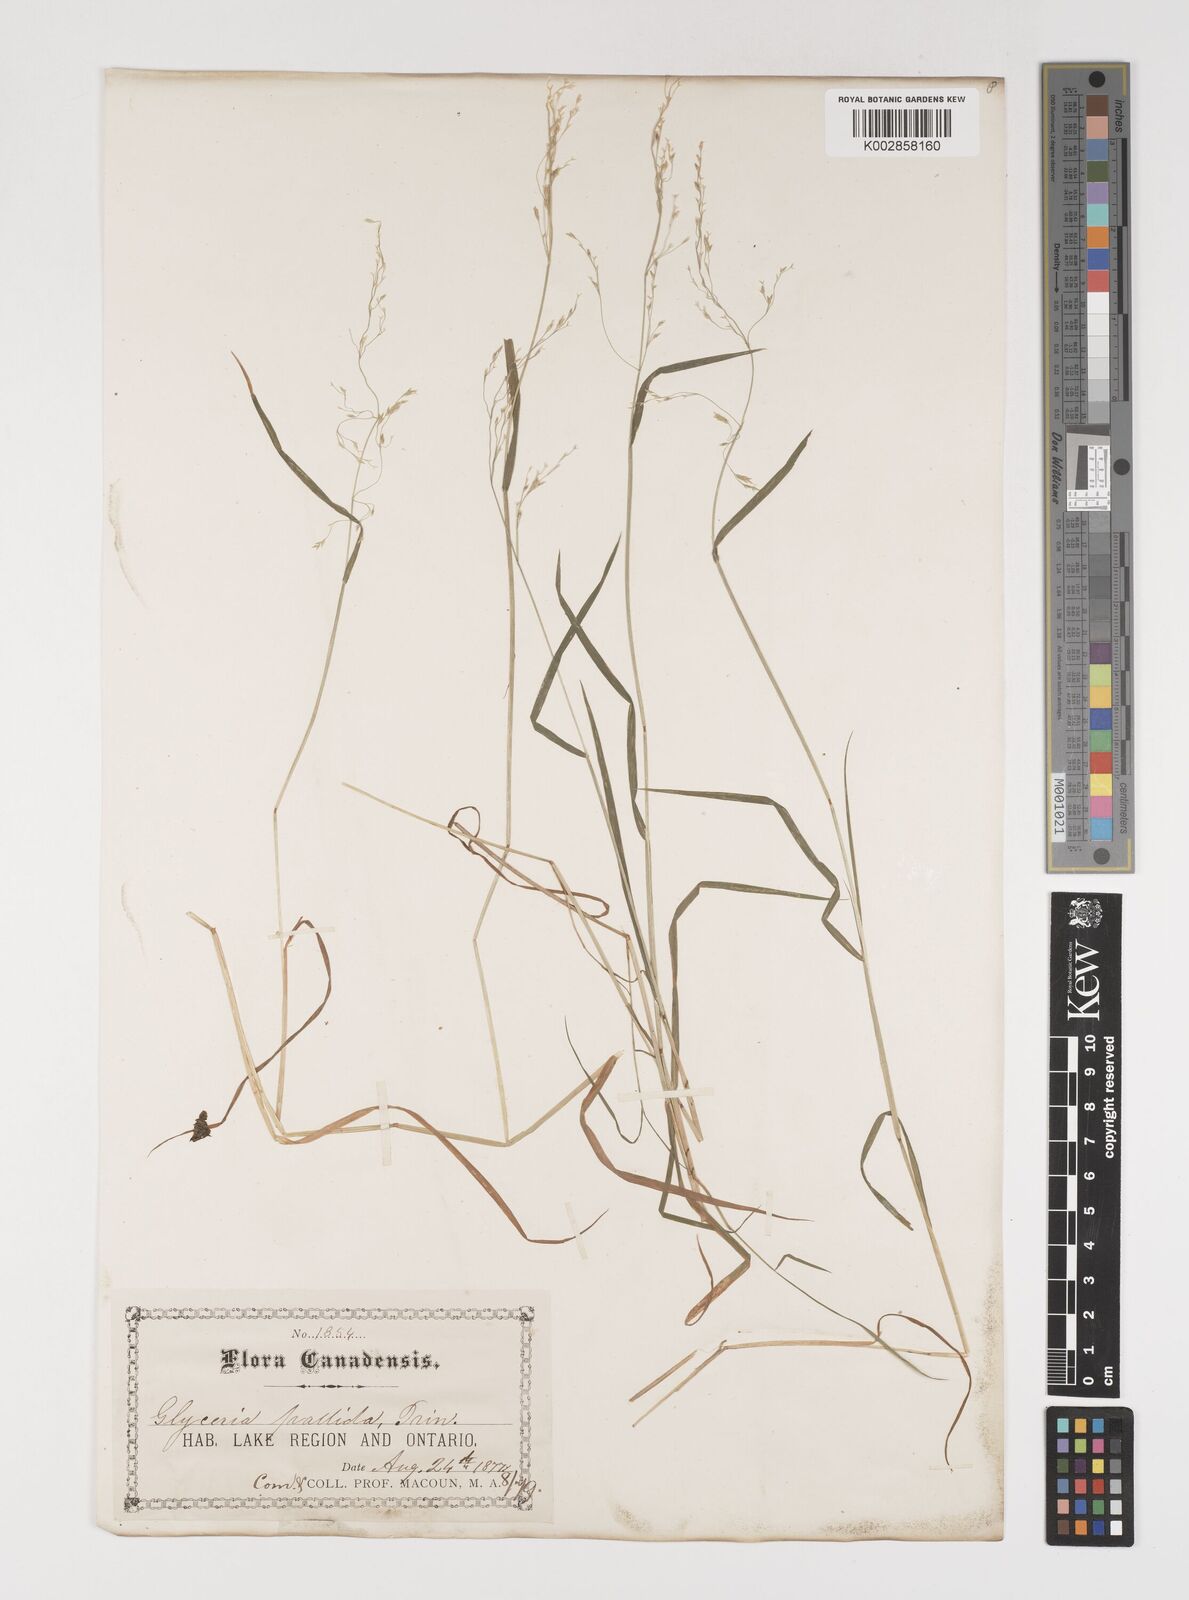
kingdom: Plantae
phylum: Tracheophyta
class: Liliopsida
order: Poales
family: Poaceae
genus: Torreyochloa
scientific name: Torreyochloa pallida
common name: Pale false mannagrass
